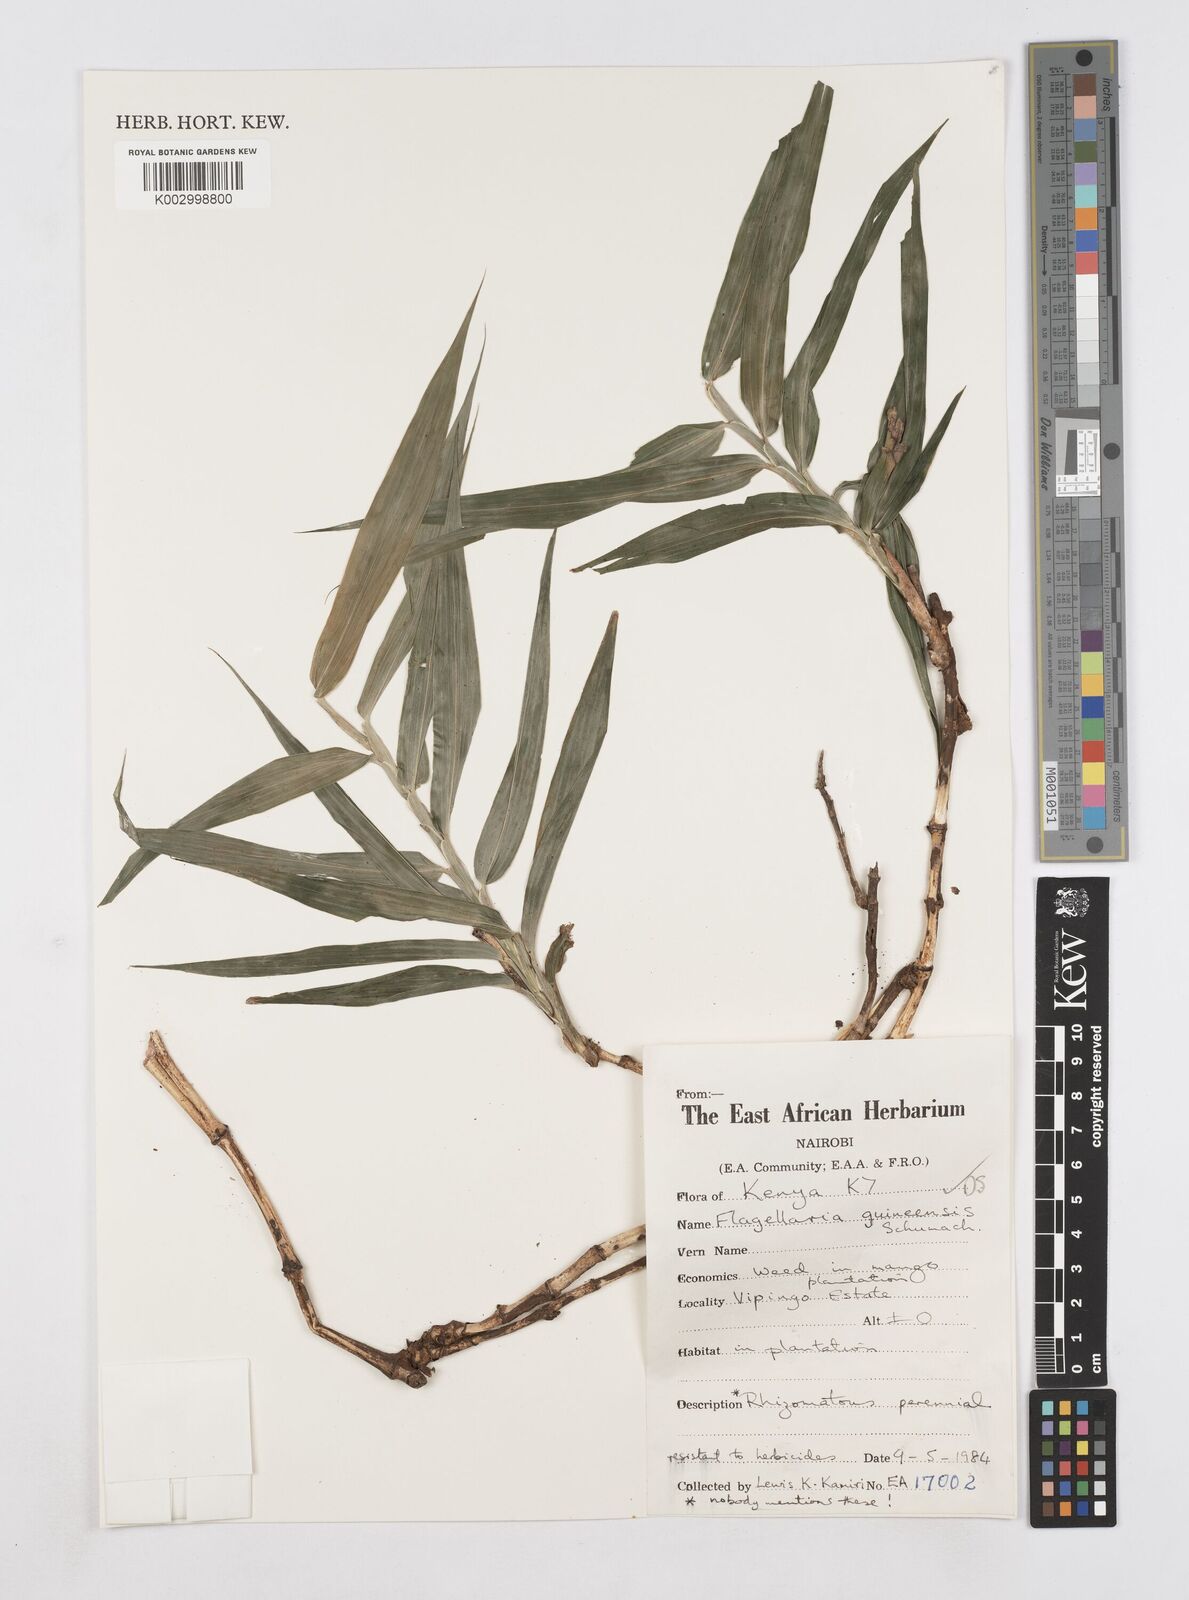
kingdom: Plantae
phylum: Tracheophyta
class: Liliopsida
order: Poales
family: Flagellariaceae
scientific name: Flagellariaceae
